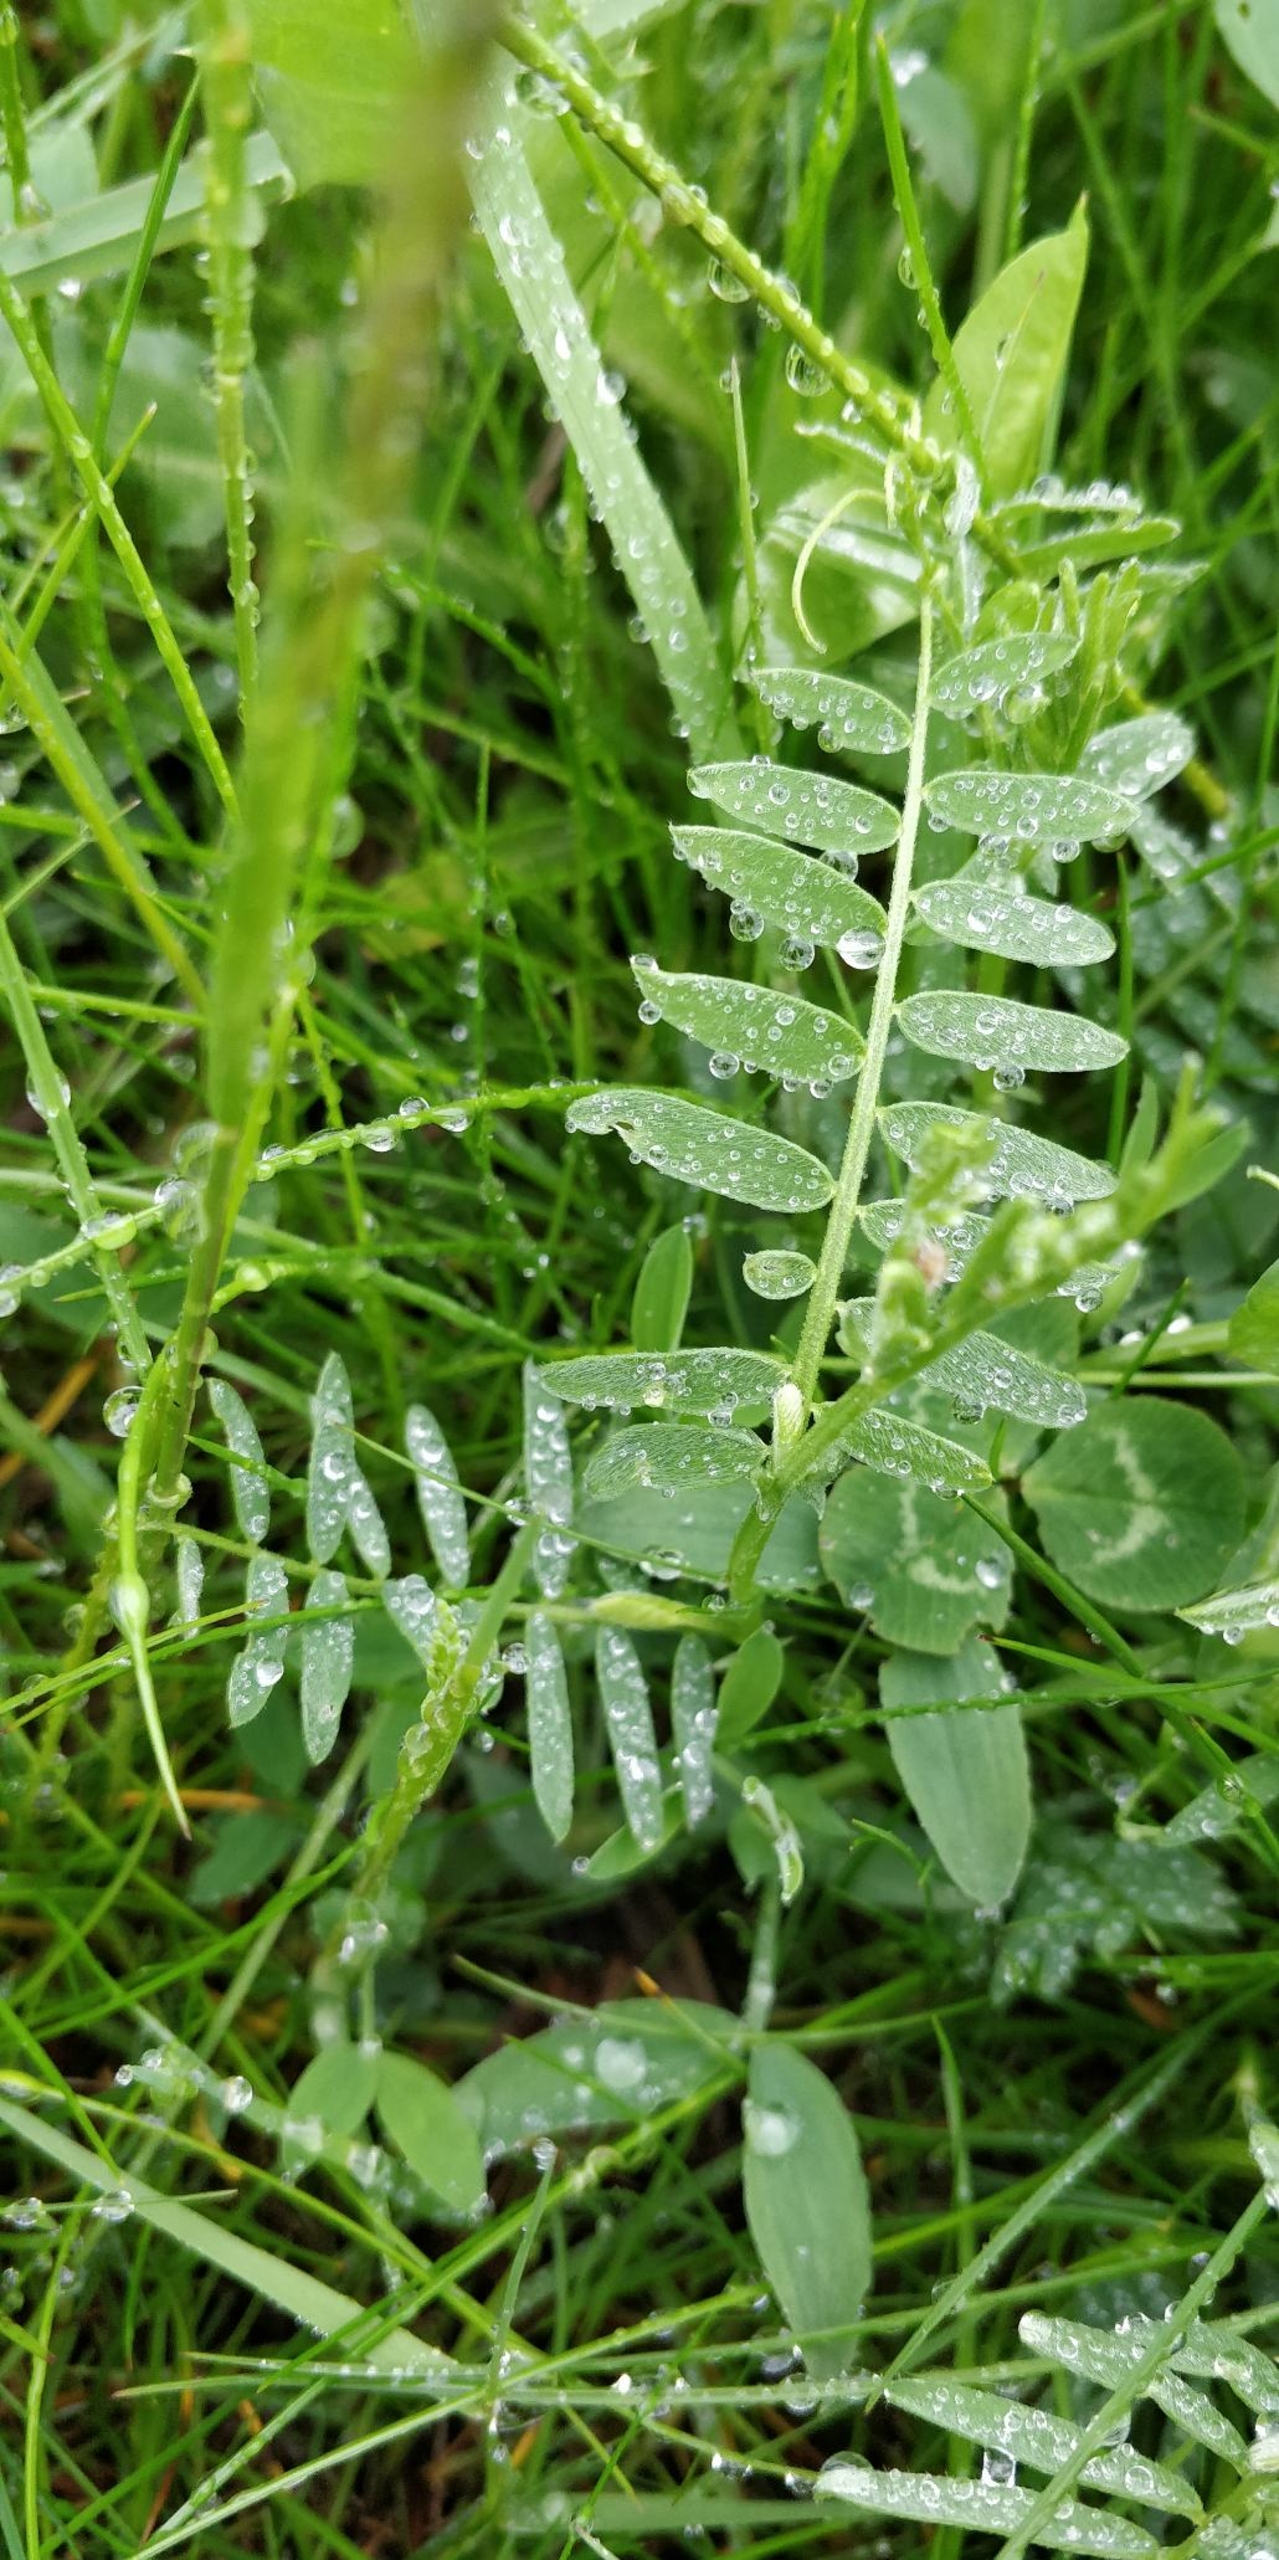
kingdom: Plantae
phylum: Tracheophyta
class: Magnoliopsida
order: Fabales
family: Fabaceae
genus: Vicia
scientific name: Vicia cracca
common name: Muse-vikke
